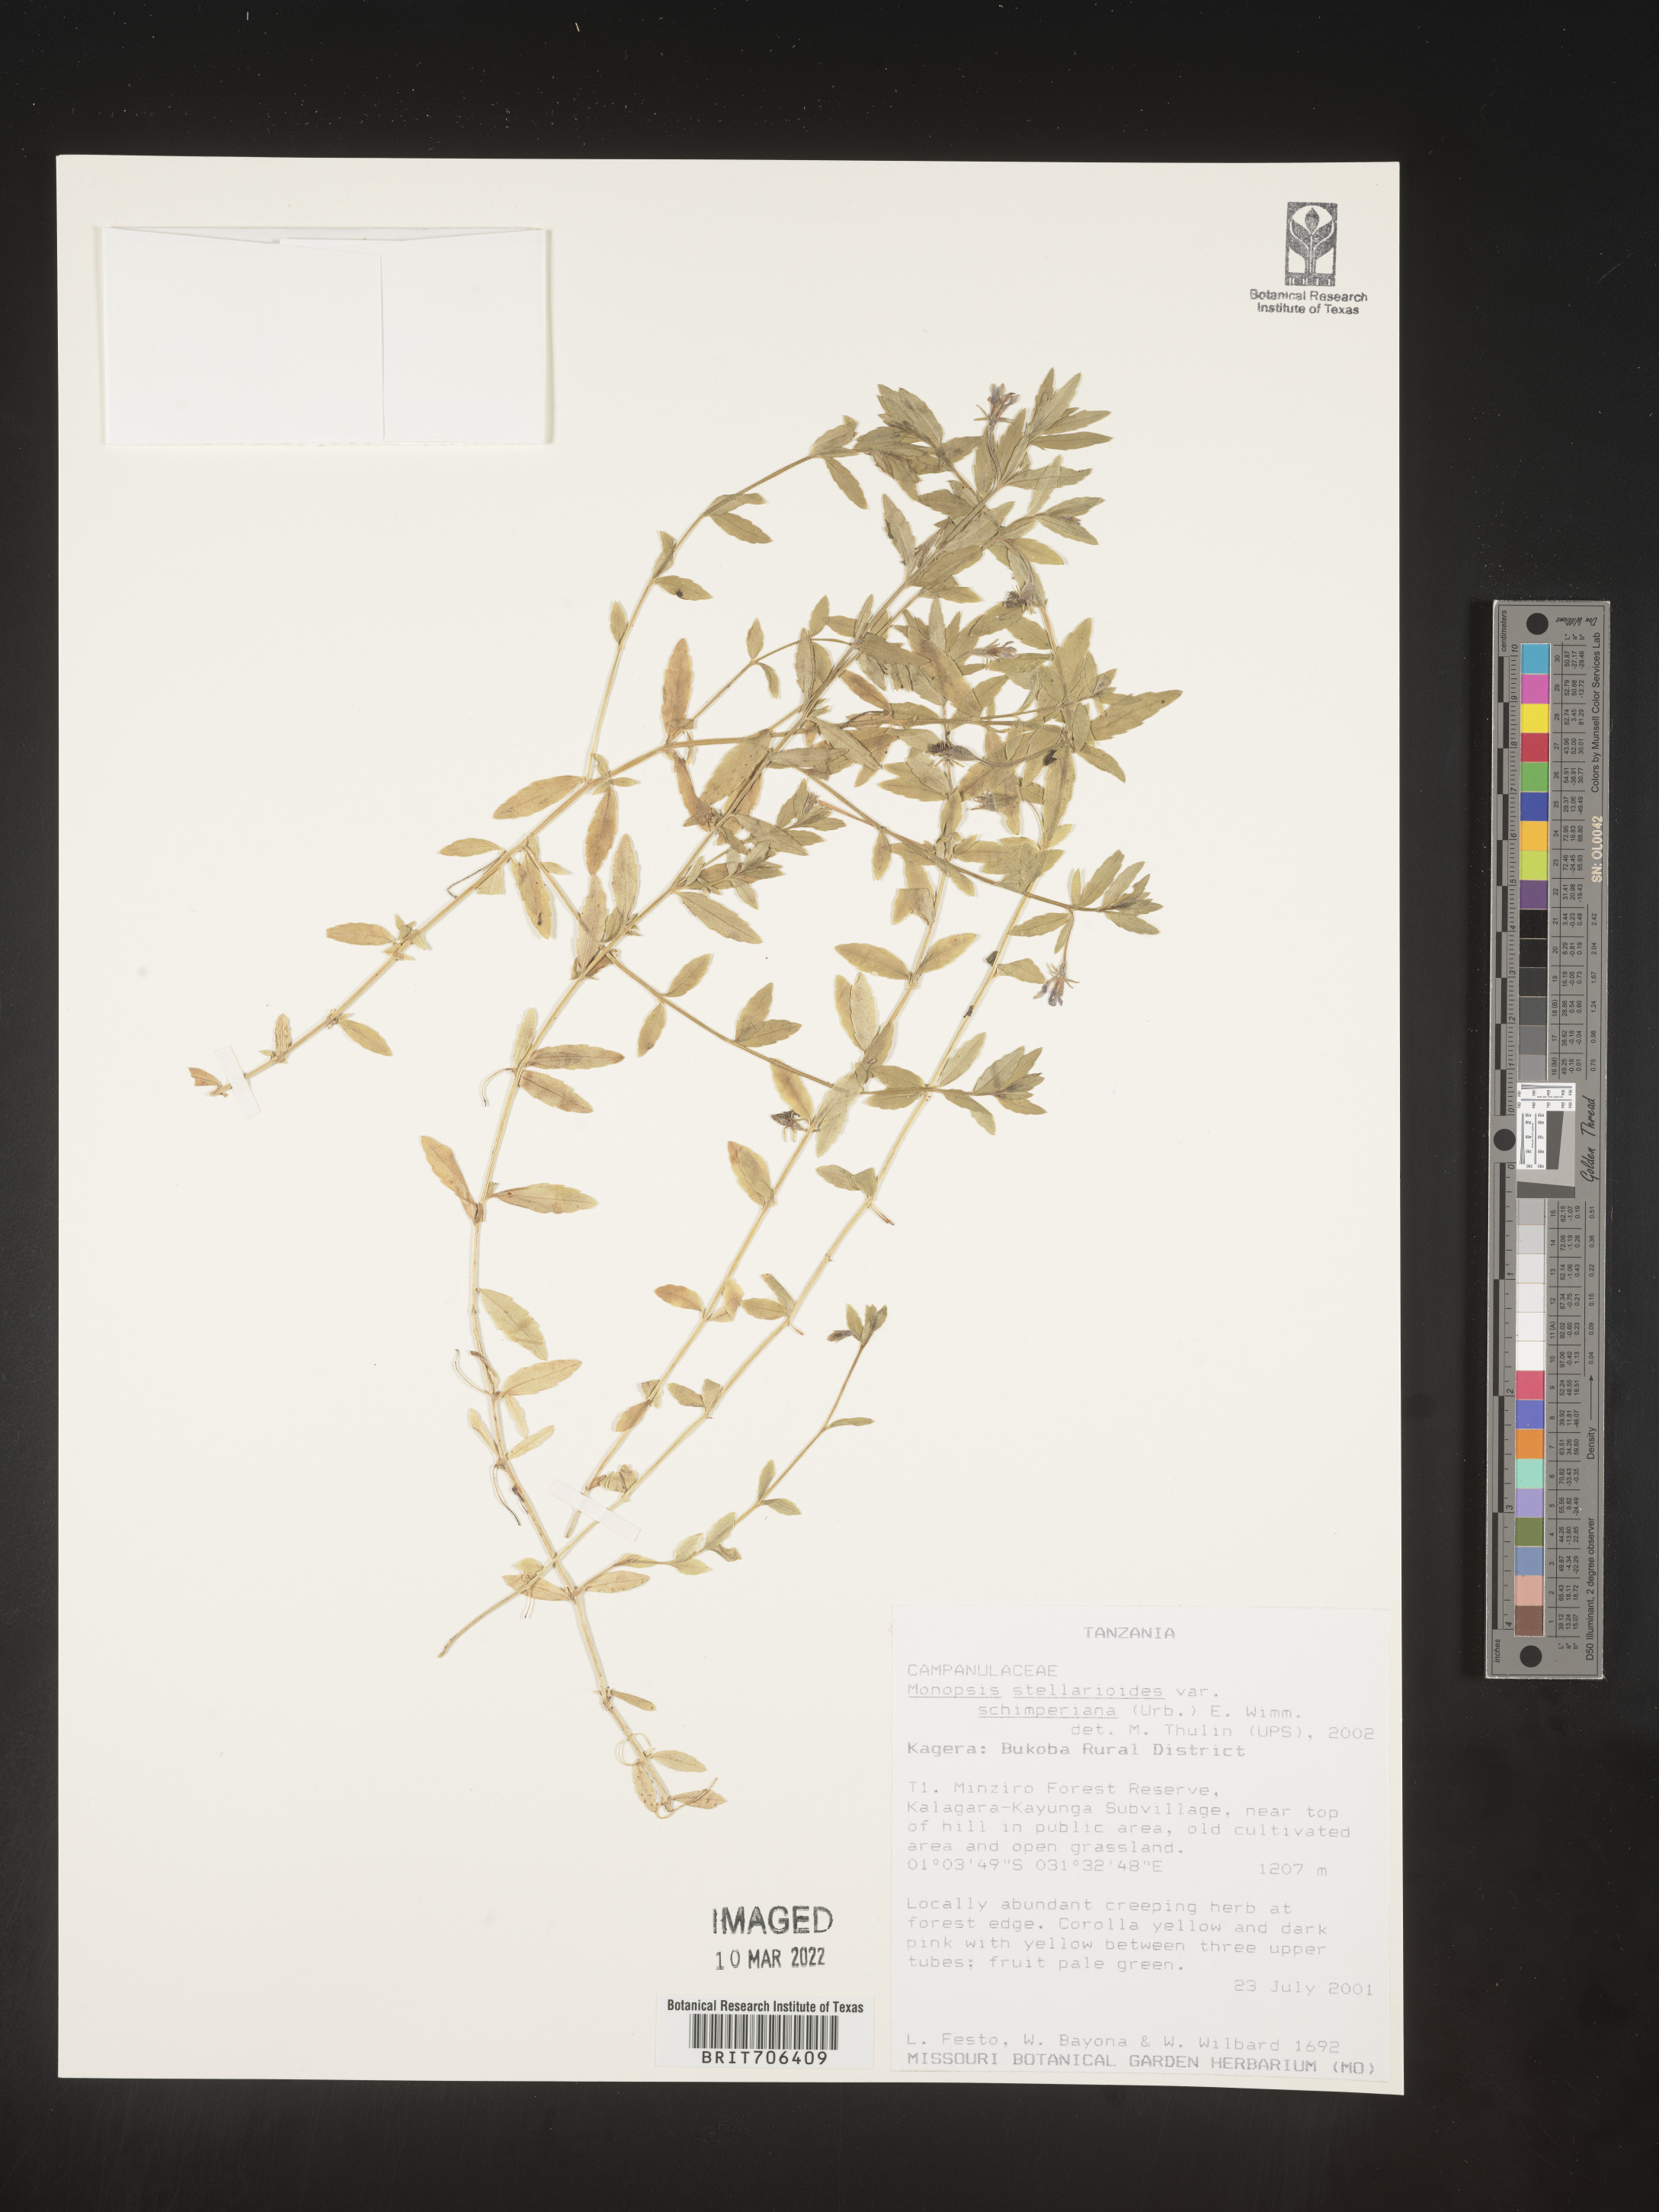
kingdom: Plantae
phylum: Tracheophyta
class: Magnoliopsida
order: Asterales
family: Campanulaceae
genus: Monopsis
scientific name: Monopsis
